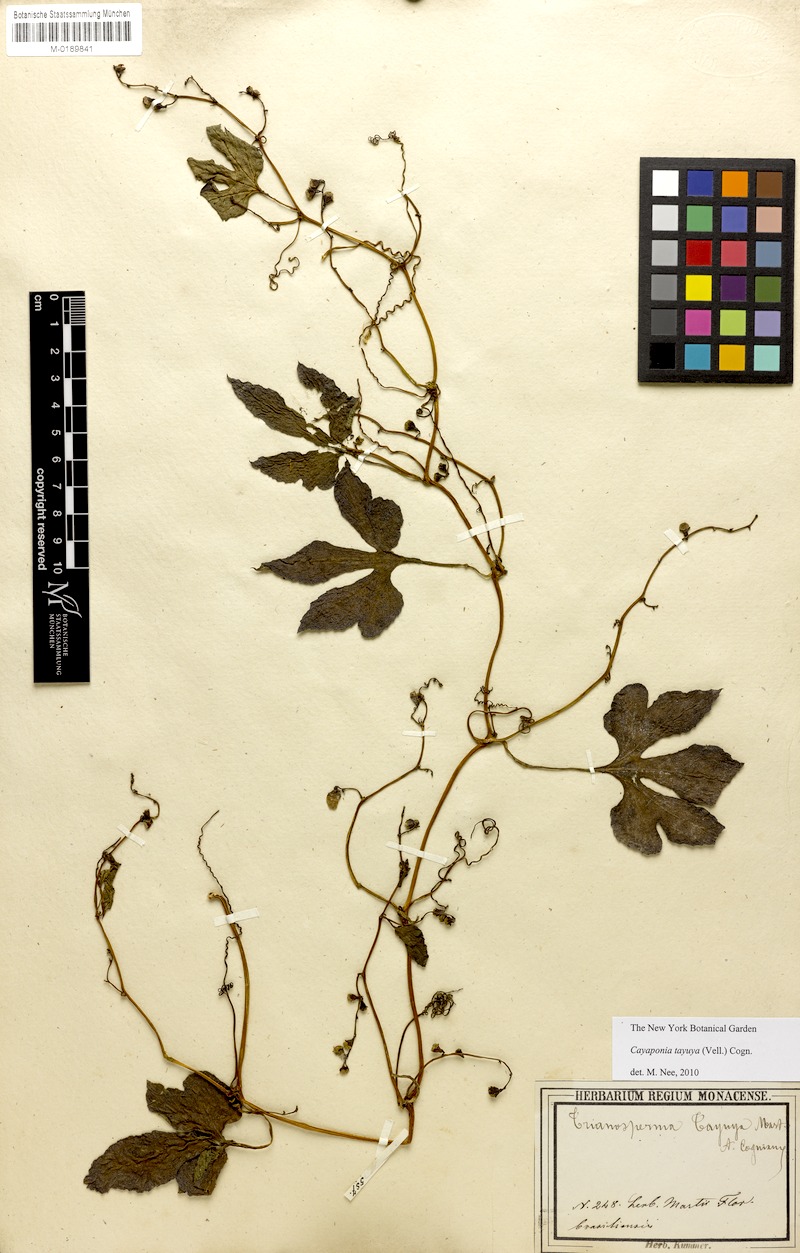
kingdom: Plantae
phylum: Tracheophyta
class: Magnoliopsida
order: Cucurbitales
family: Cucurbitaceae
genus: Cayaponia
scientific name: Cayaponia tayuya
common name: Tayuya
